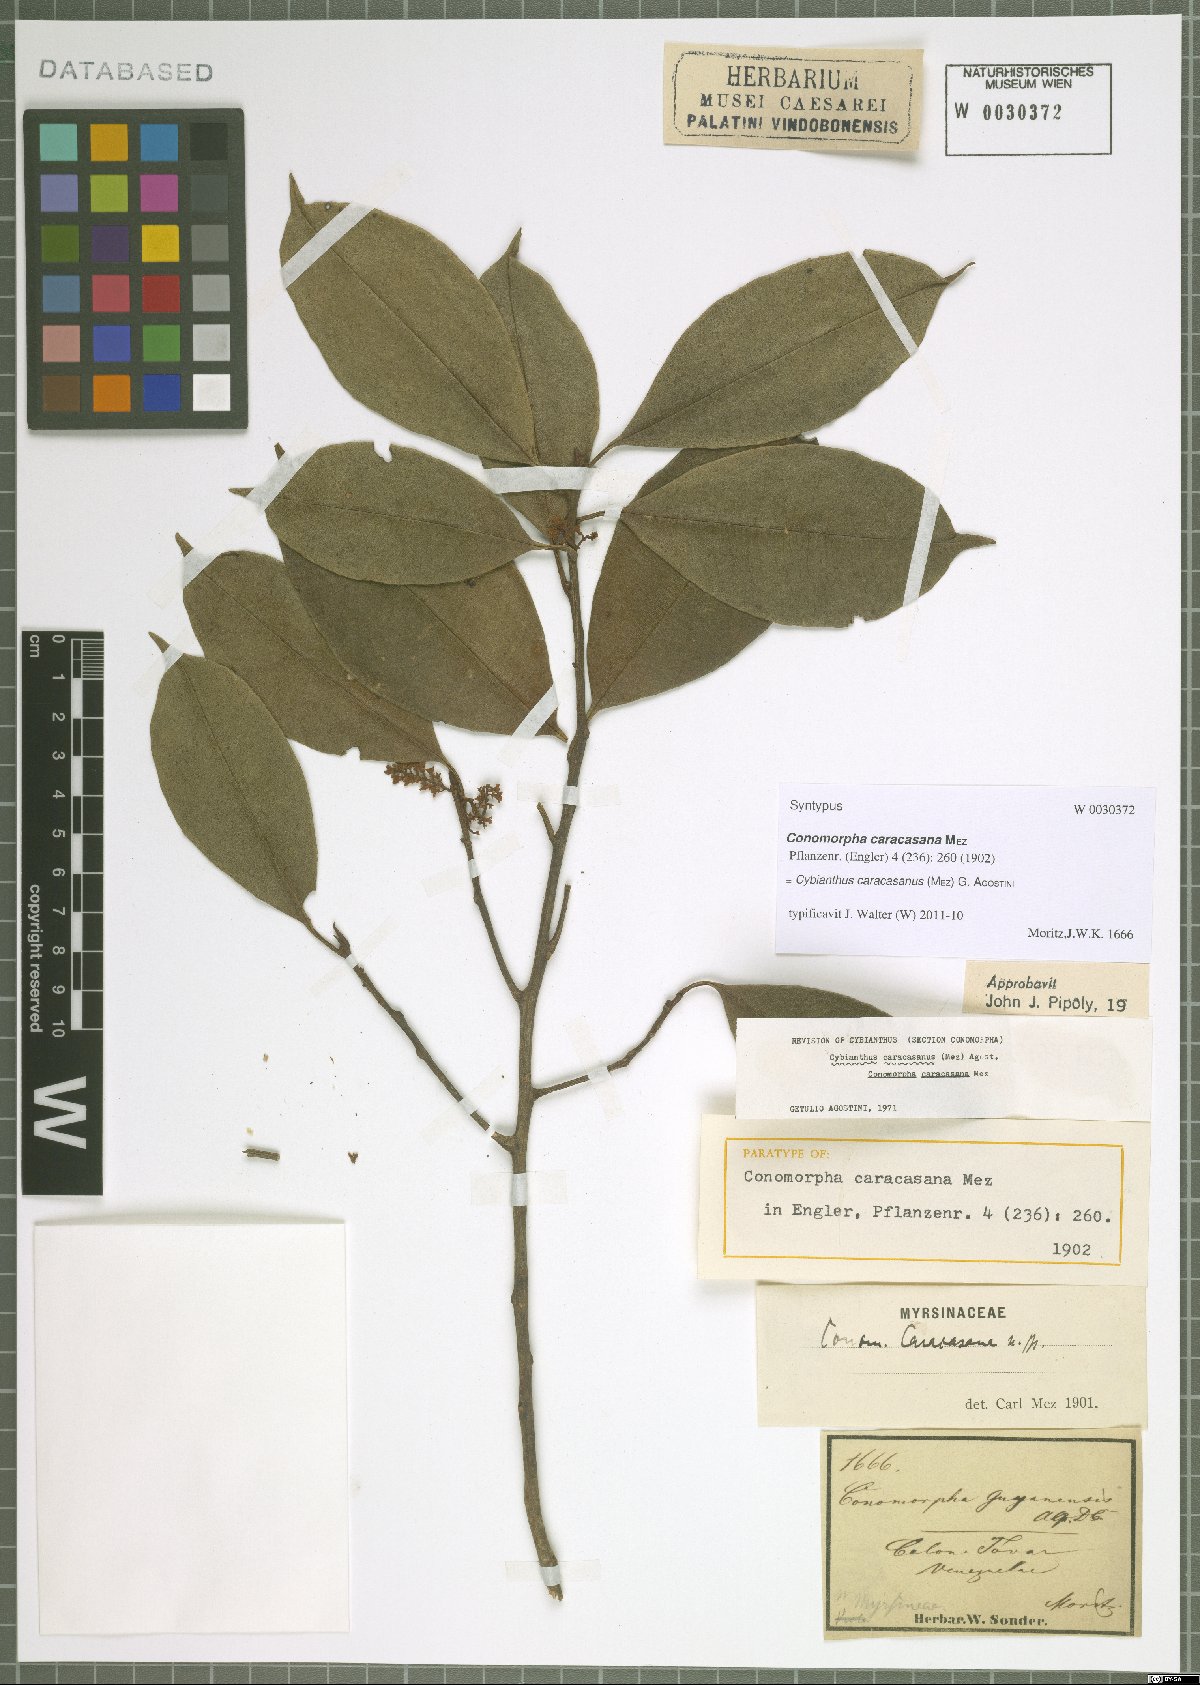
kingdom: Plantae
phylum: Tracheophyta
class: Magnoliopsida
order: Ericales
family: Primulaceae
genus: Cybianthus
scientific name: Cybianthus caracasanus
